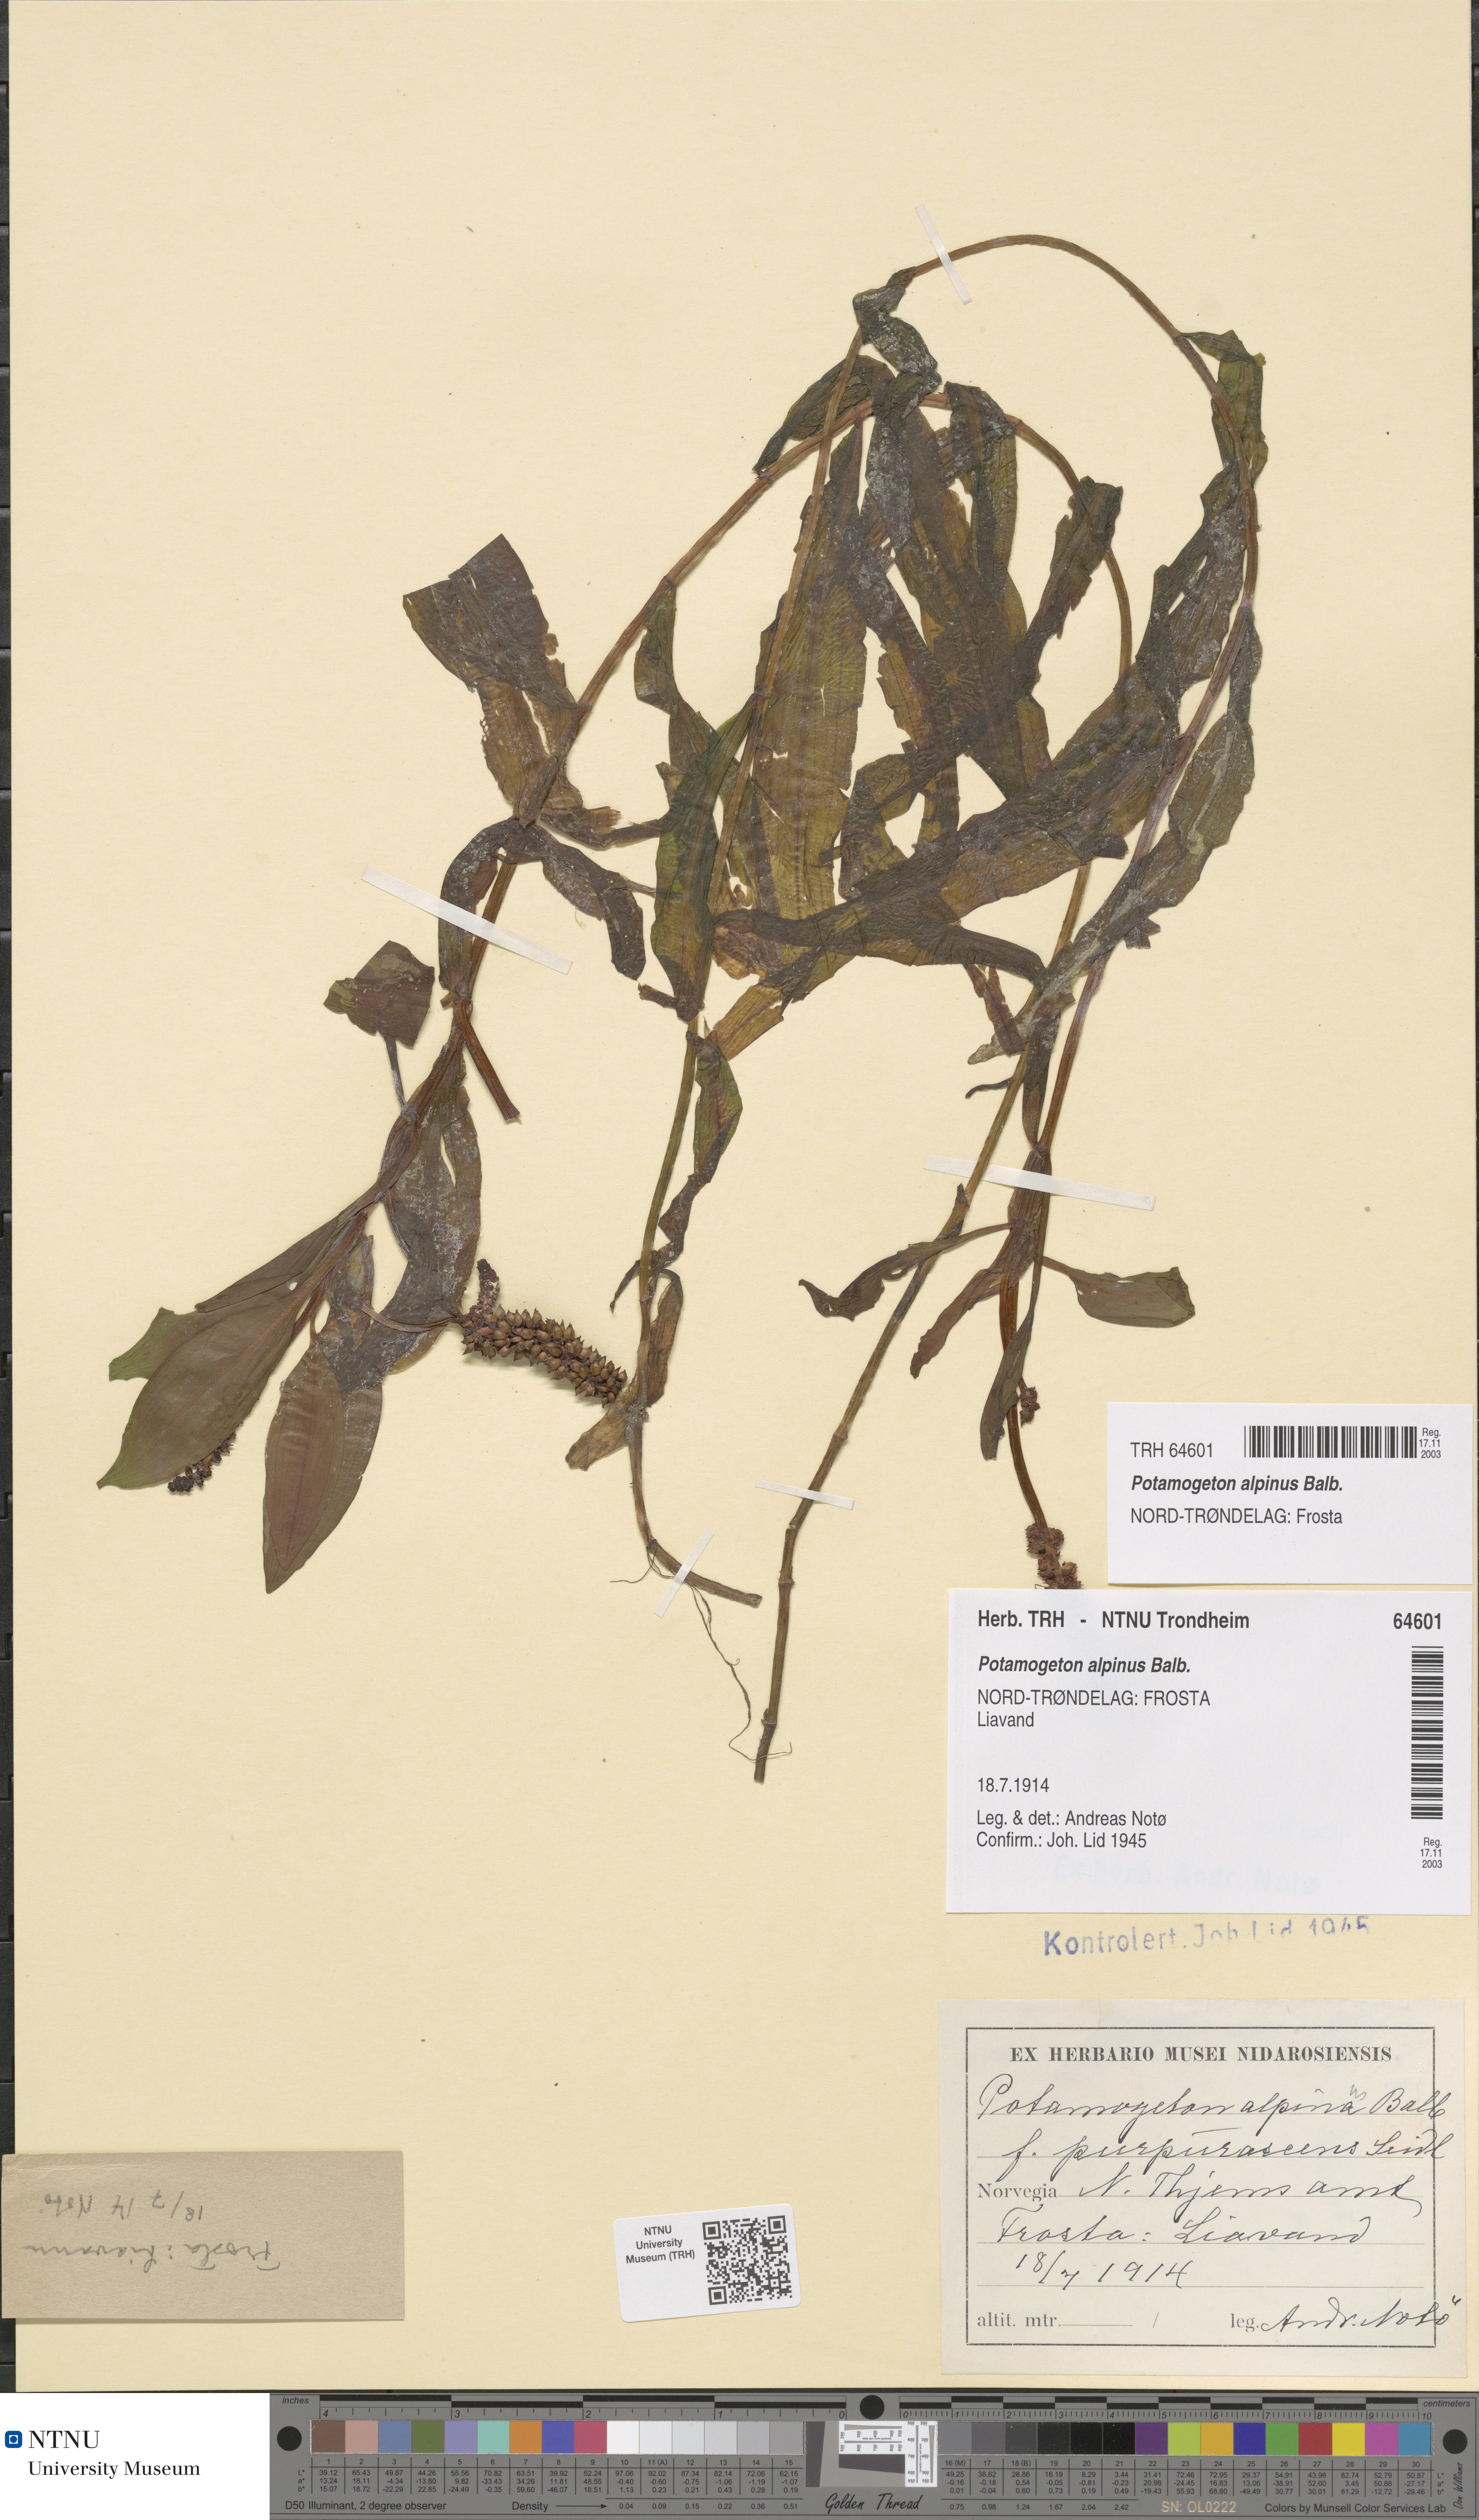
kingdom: Plantae
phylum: Tracheophyta
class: Liliopsida
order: Alismatales
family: Potamogetonaceae
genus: Potamogeton
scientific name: Potamogeton alpinus
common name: Red pondweed
